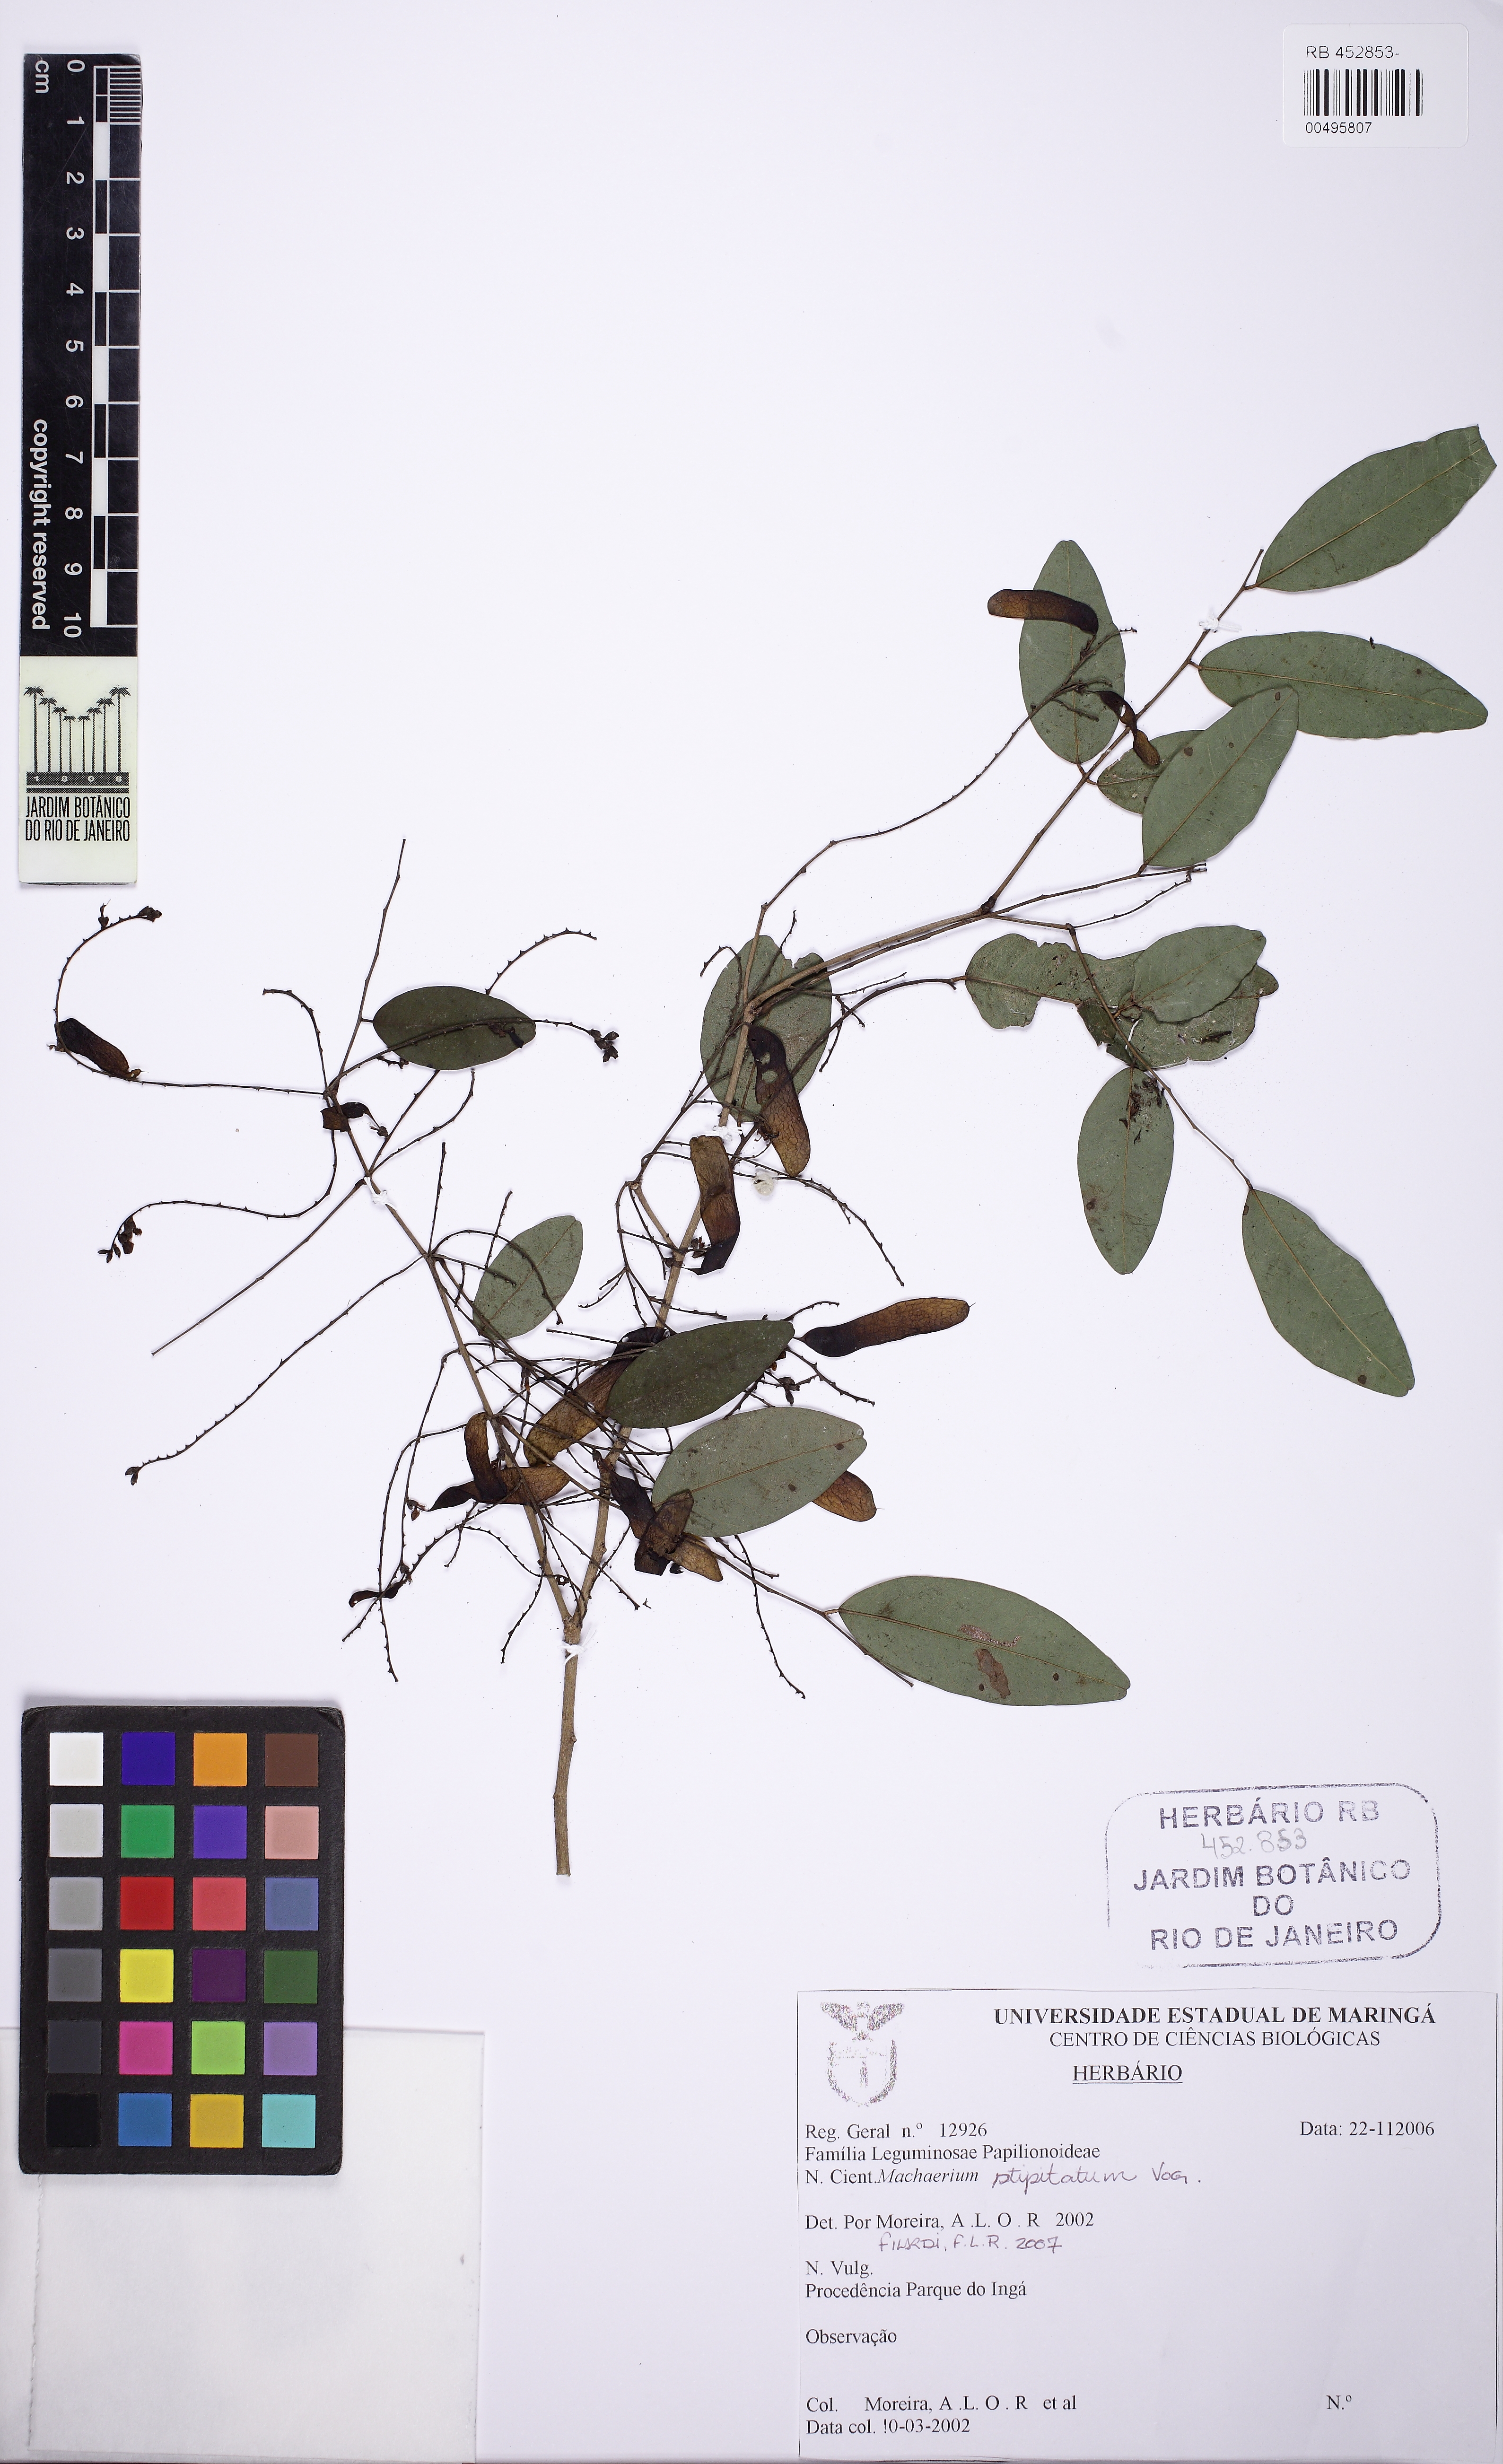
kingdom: Plantae
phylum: Tracheophyta
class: Magnoliopsida
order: Fabales
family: Fabaceae
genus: Machaerium
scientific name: Machaerium stipitatum
